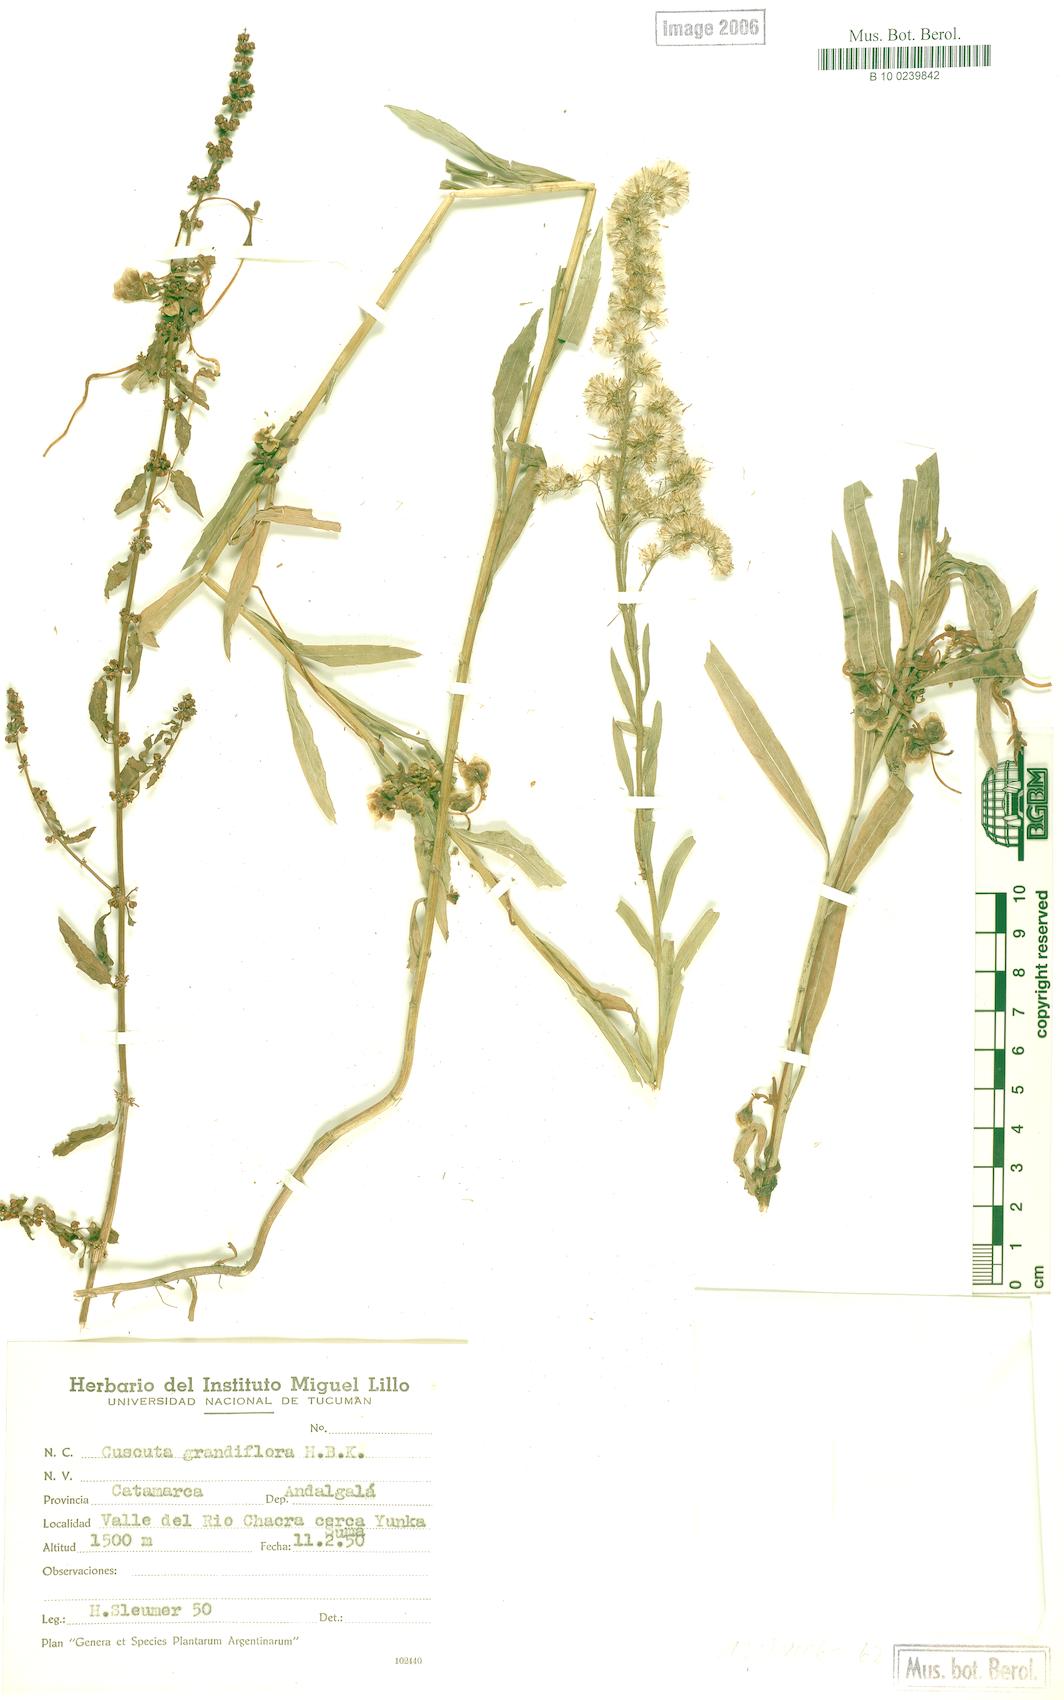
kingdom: Plantae
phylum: Tracheophyta
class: Magnoliopsida
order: Solanales
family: Convolvulaceae
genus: Cuscuta
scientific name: Cuscuta grandiflora
